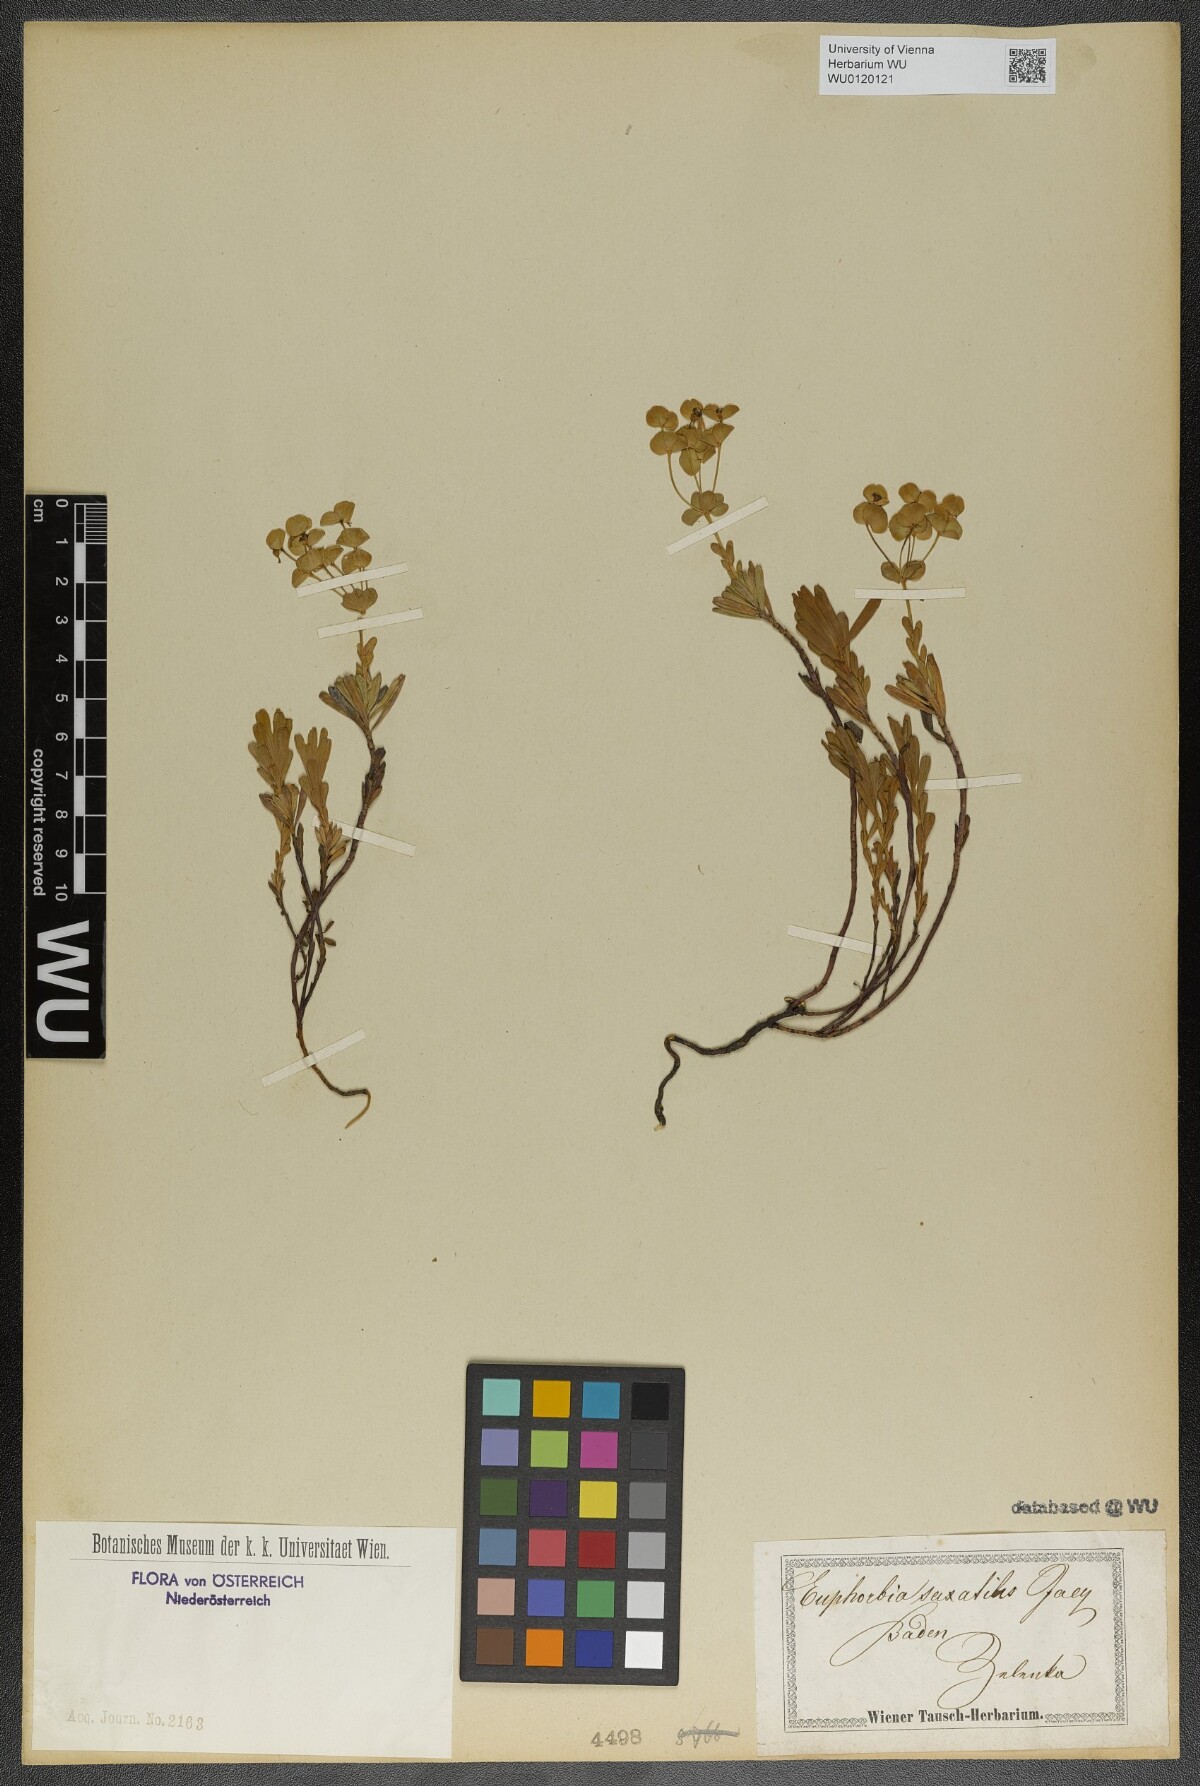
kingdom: Plantae
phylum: Tracheophyta
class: Magnoliopsida
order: Malpighiales
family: Euphorbiaceae
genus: Euphorbia
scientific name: Euphorbia saxatilis
